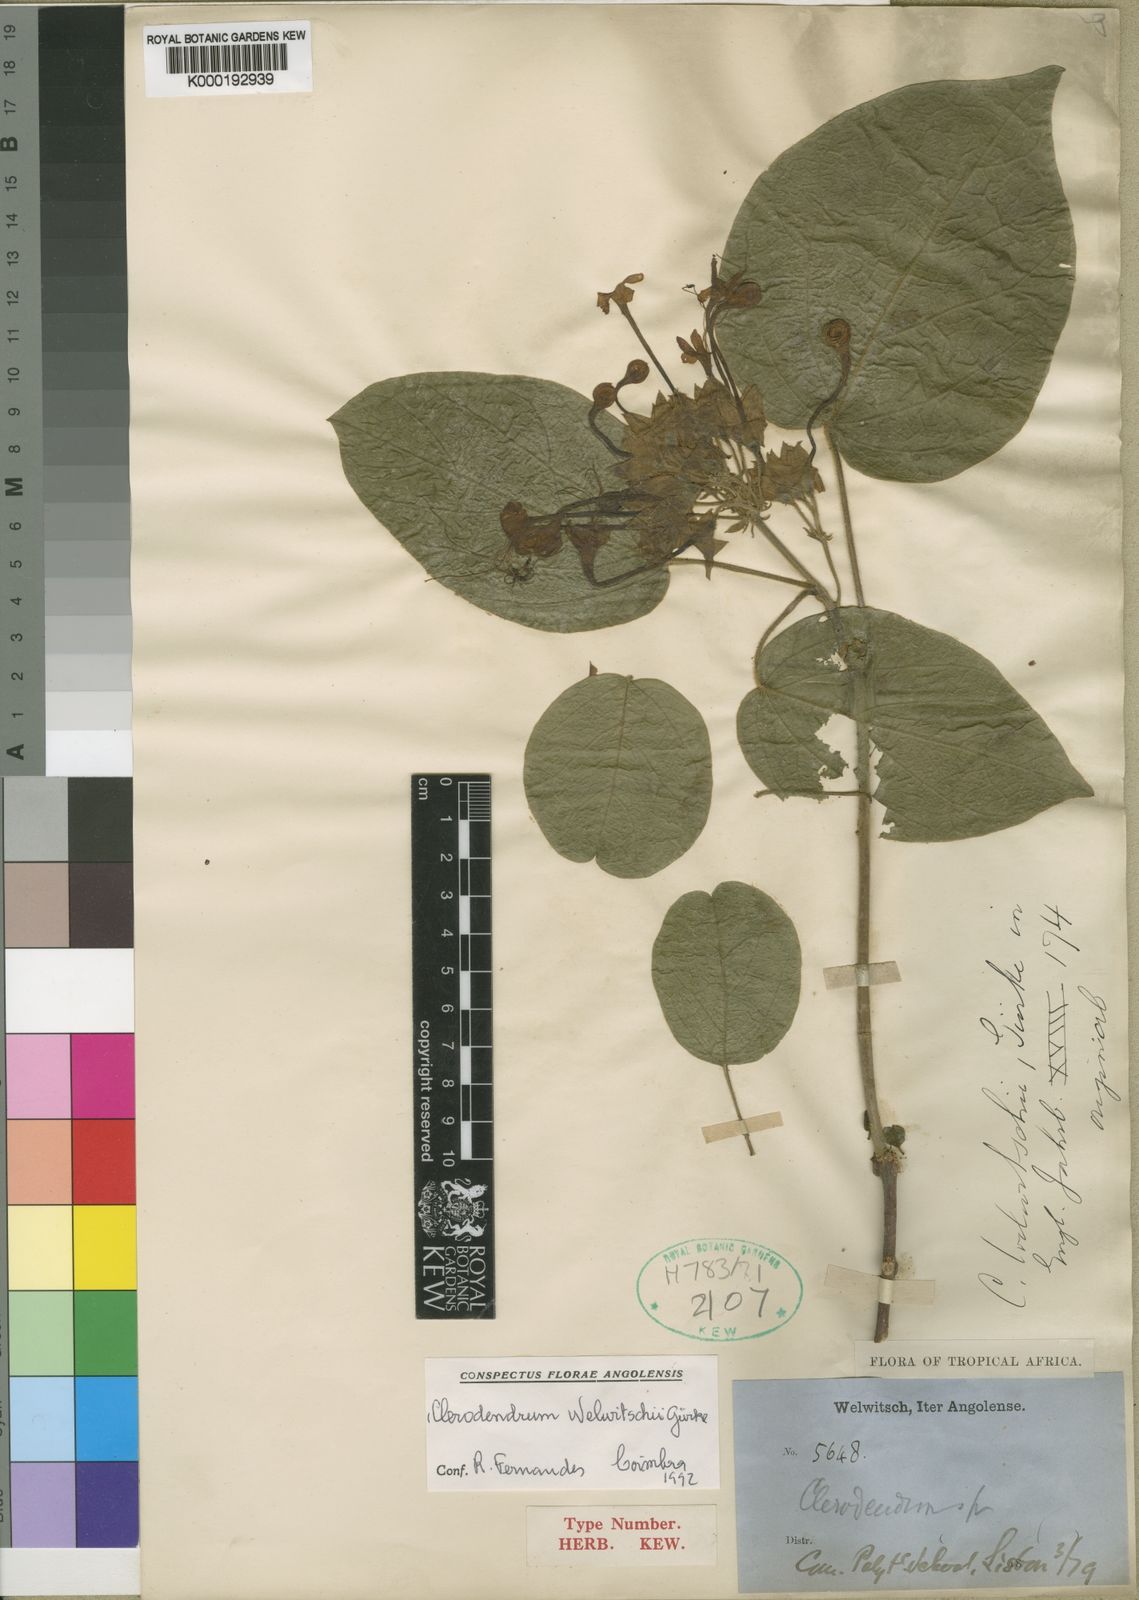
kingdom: Plantae
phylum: Tracheophyta
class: Magnoliopsida
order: Lamiales
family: Lamiaceae
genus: Clerodendrum
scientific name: Clerodendrum
